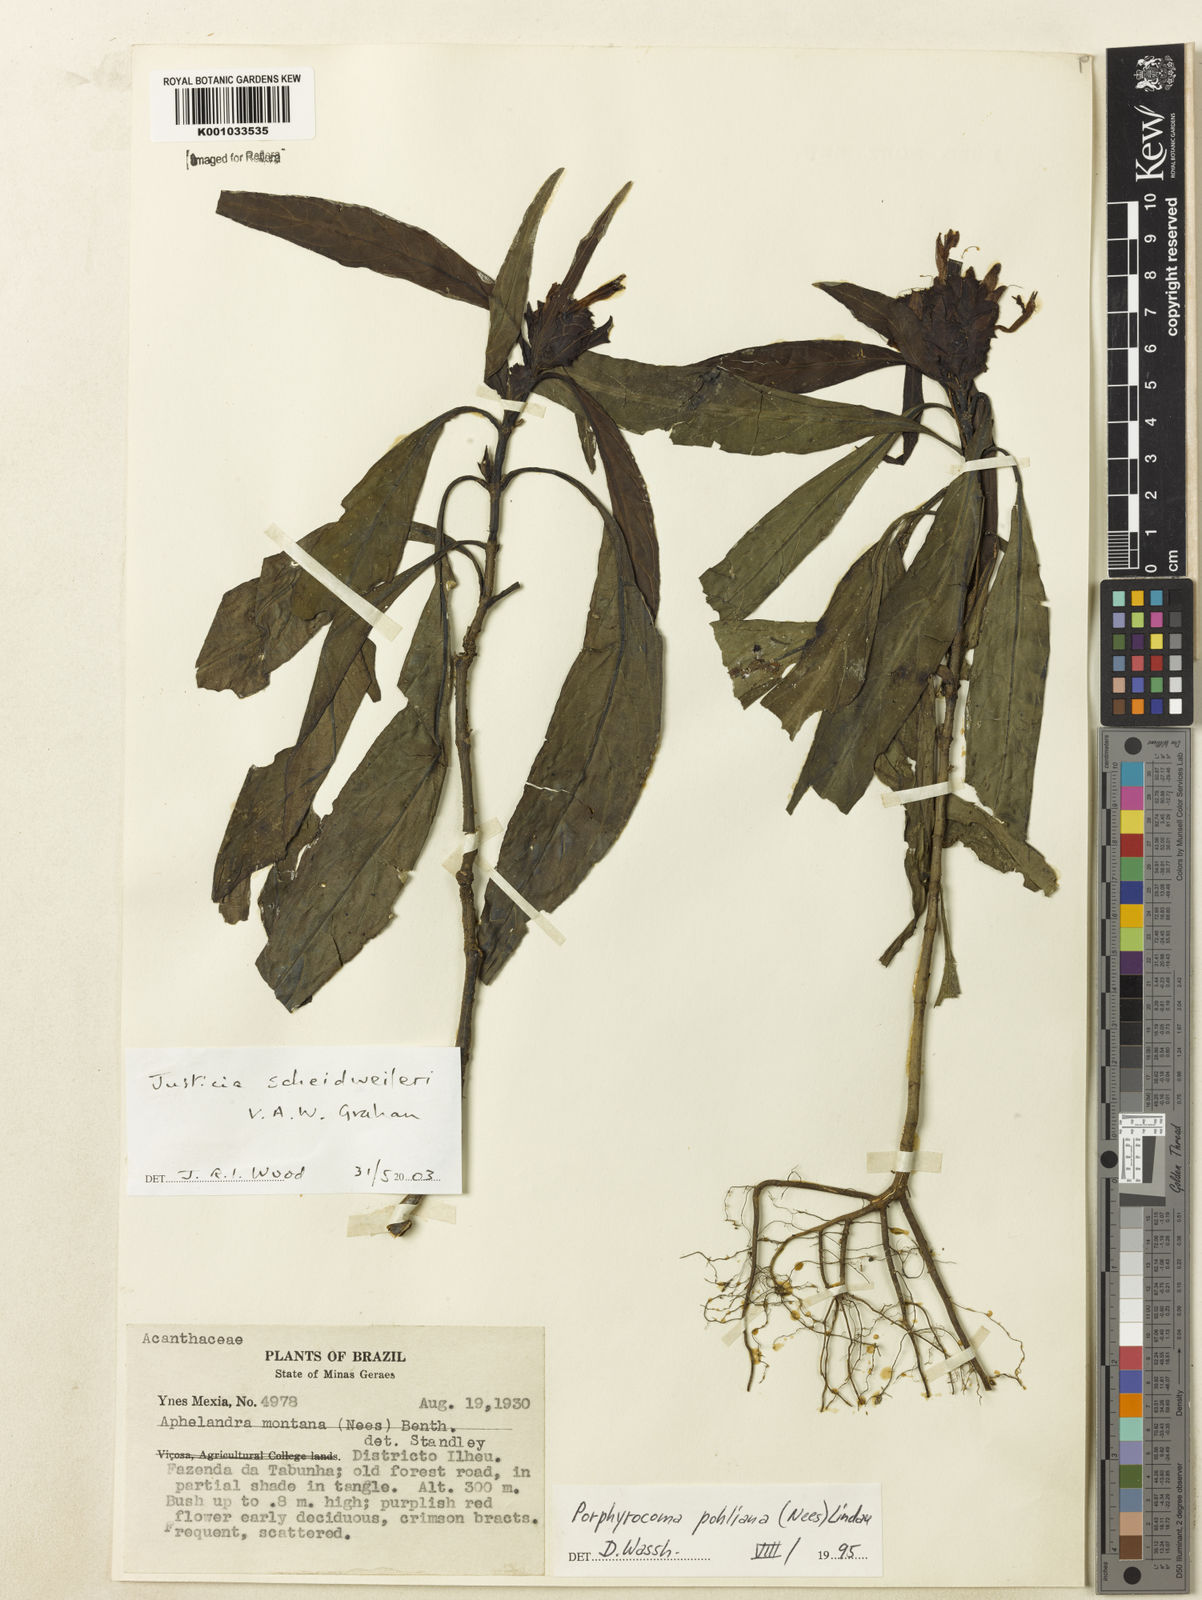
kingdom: Plantae
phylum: Tracheophyta
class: Magnoliopsida
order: Lamiales
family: Acanthaceae
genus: Justicia
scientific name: Justicia scheidweileri
